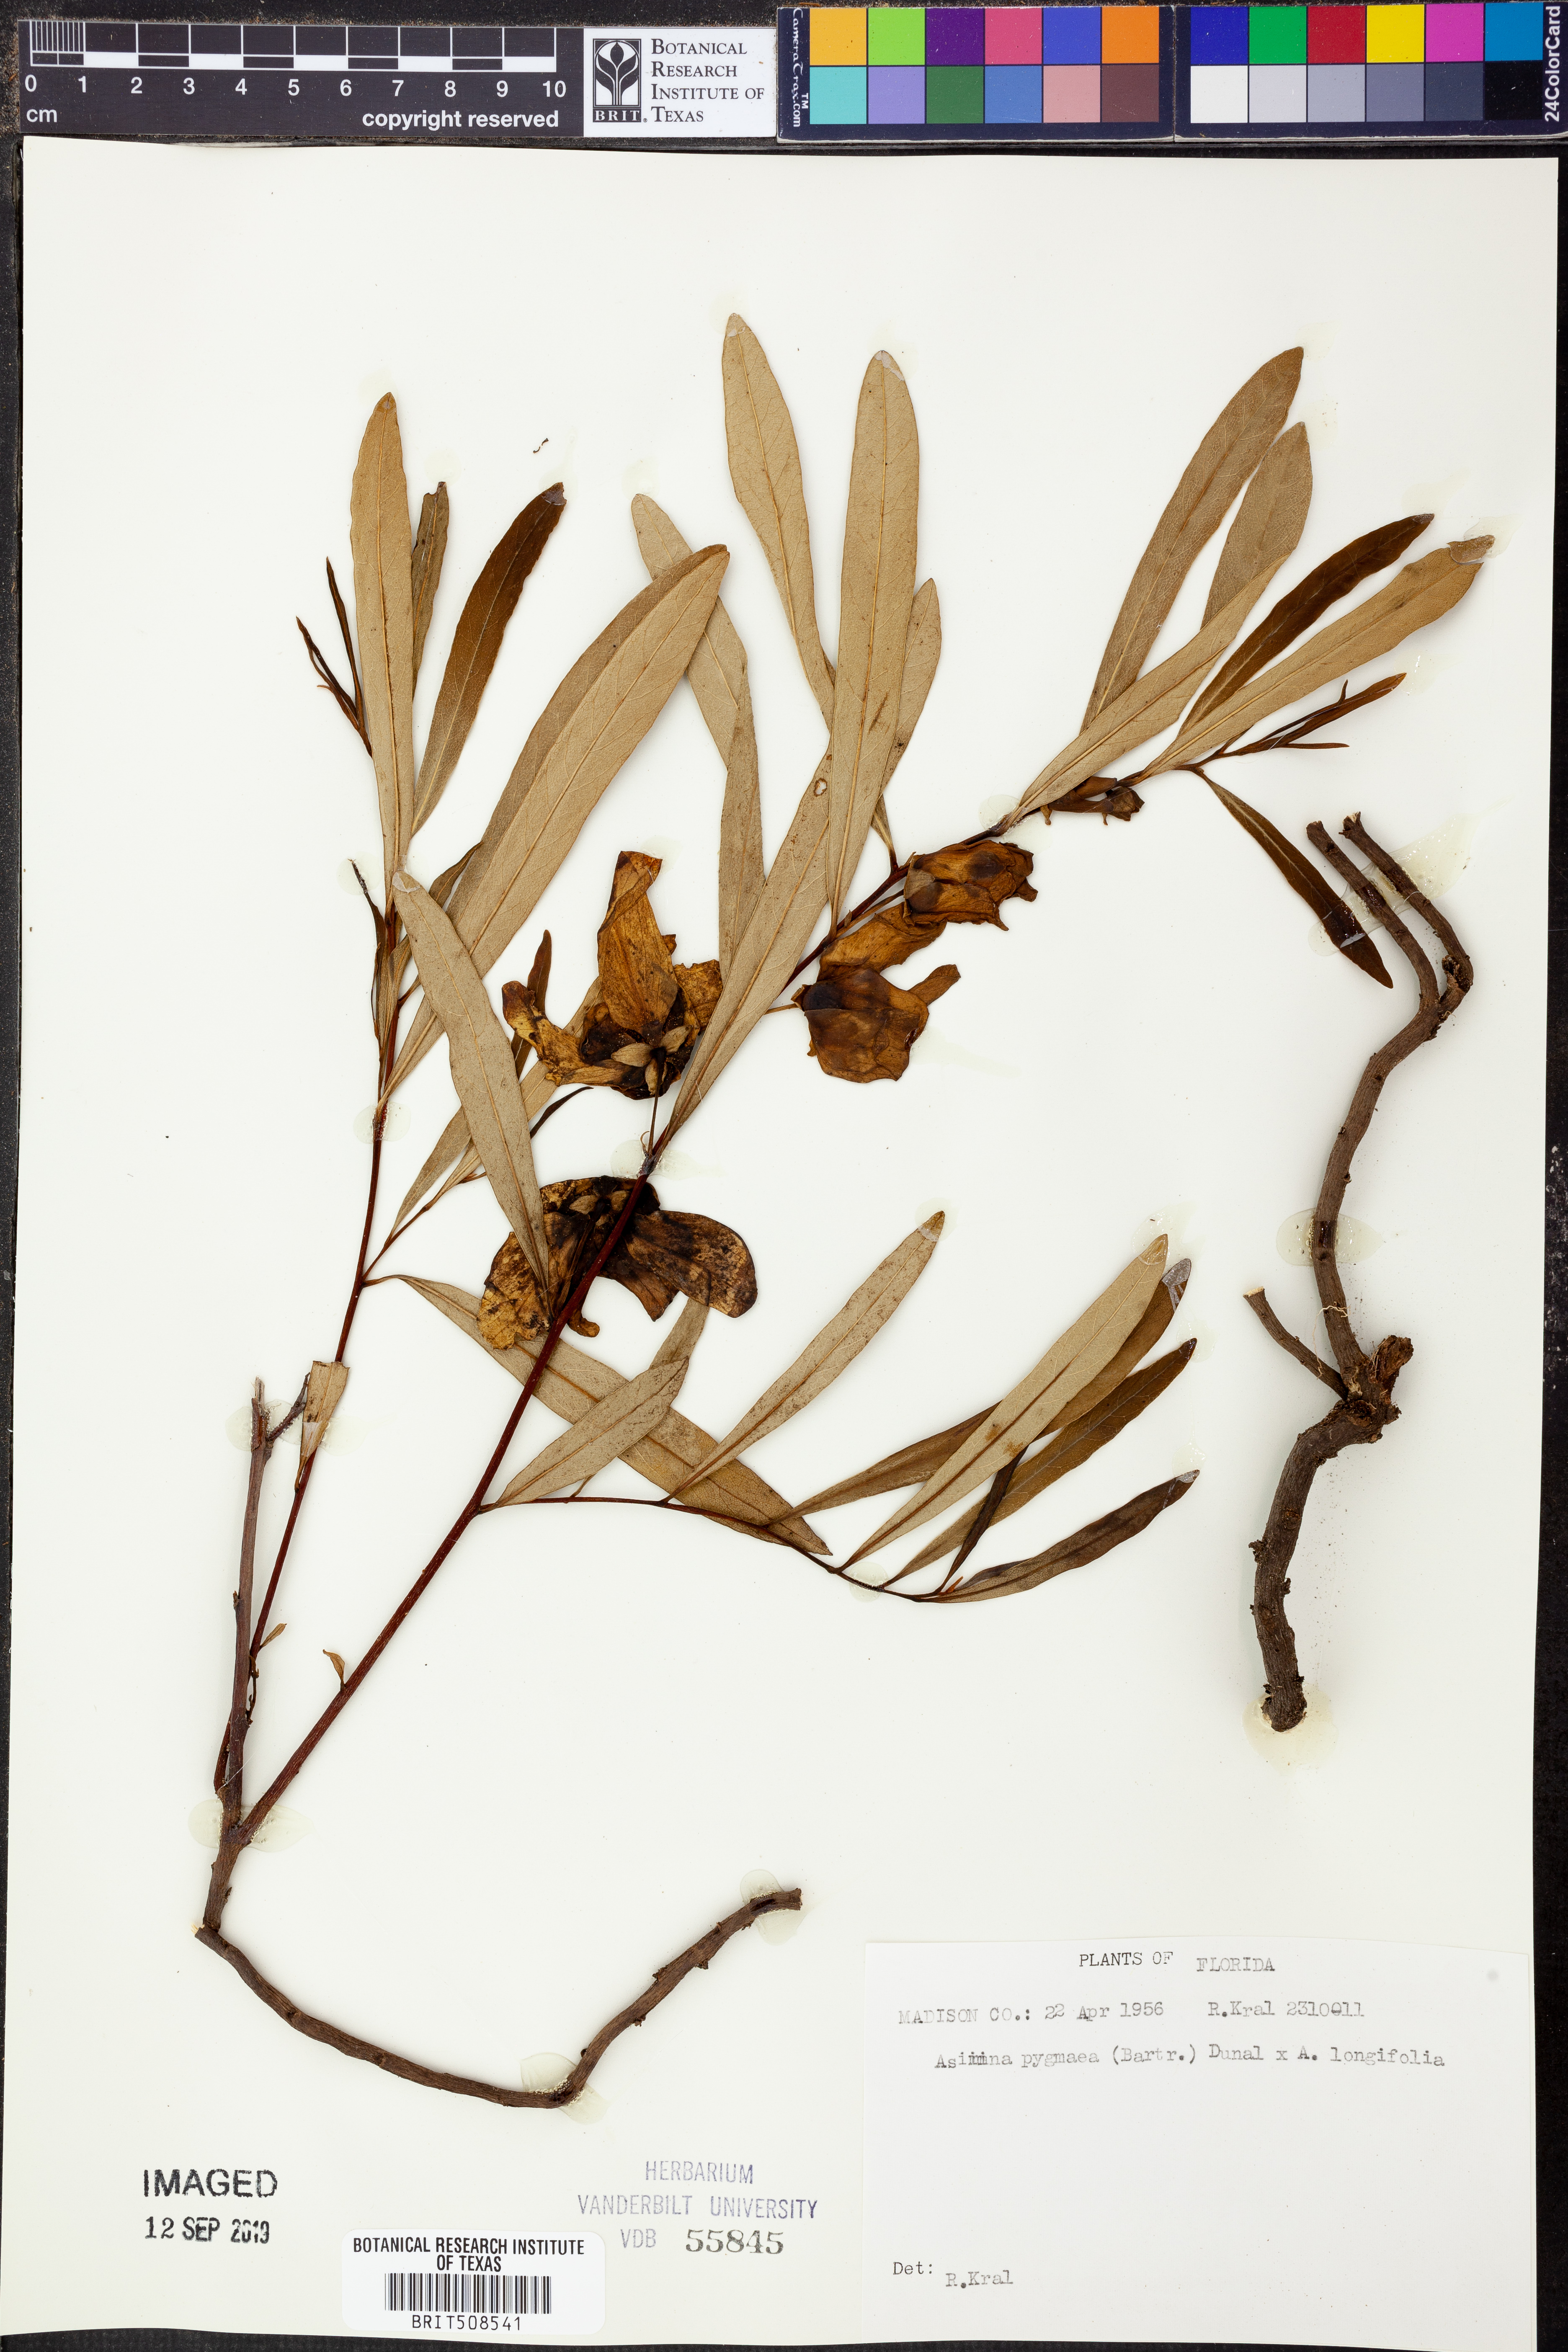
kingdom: Plantae
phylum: Tracheophyta
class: Magnoliopsida
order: Magnoliales
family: Annonaceae
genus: Asimina
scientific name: Asimina pygmaea
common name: Dwarf pawpaw
